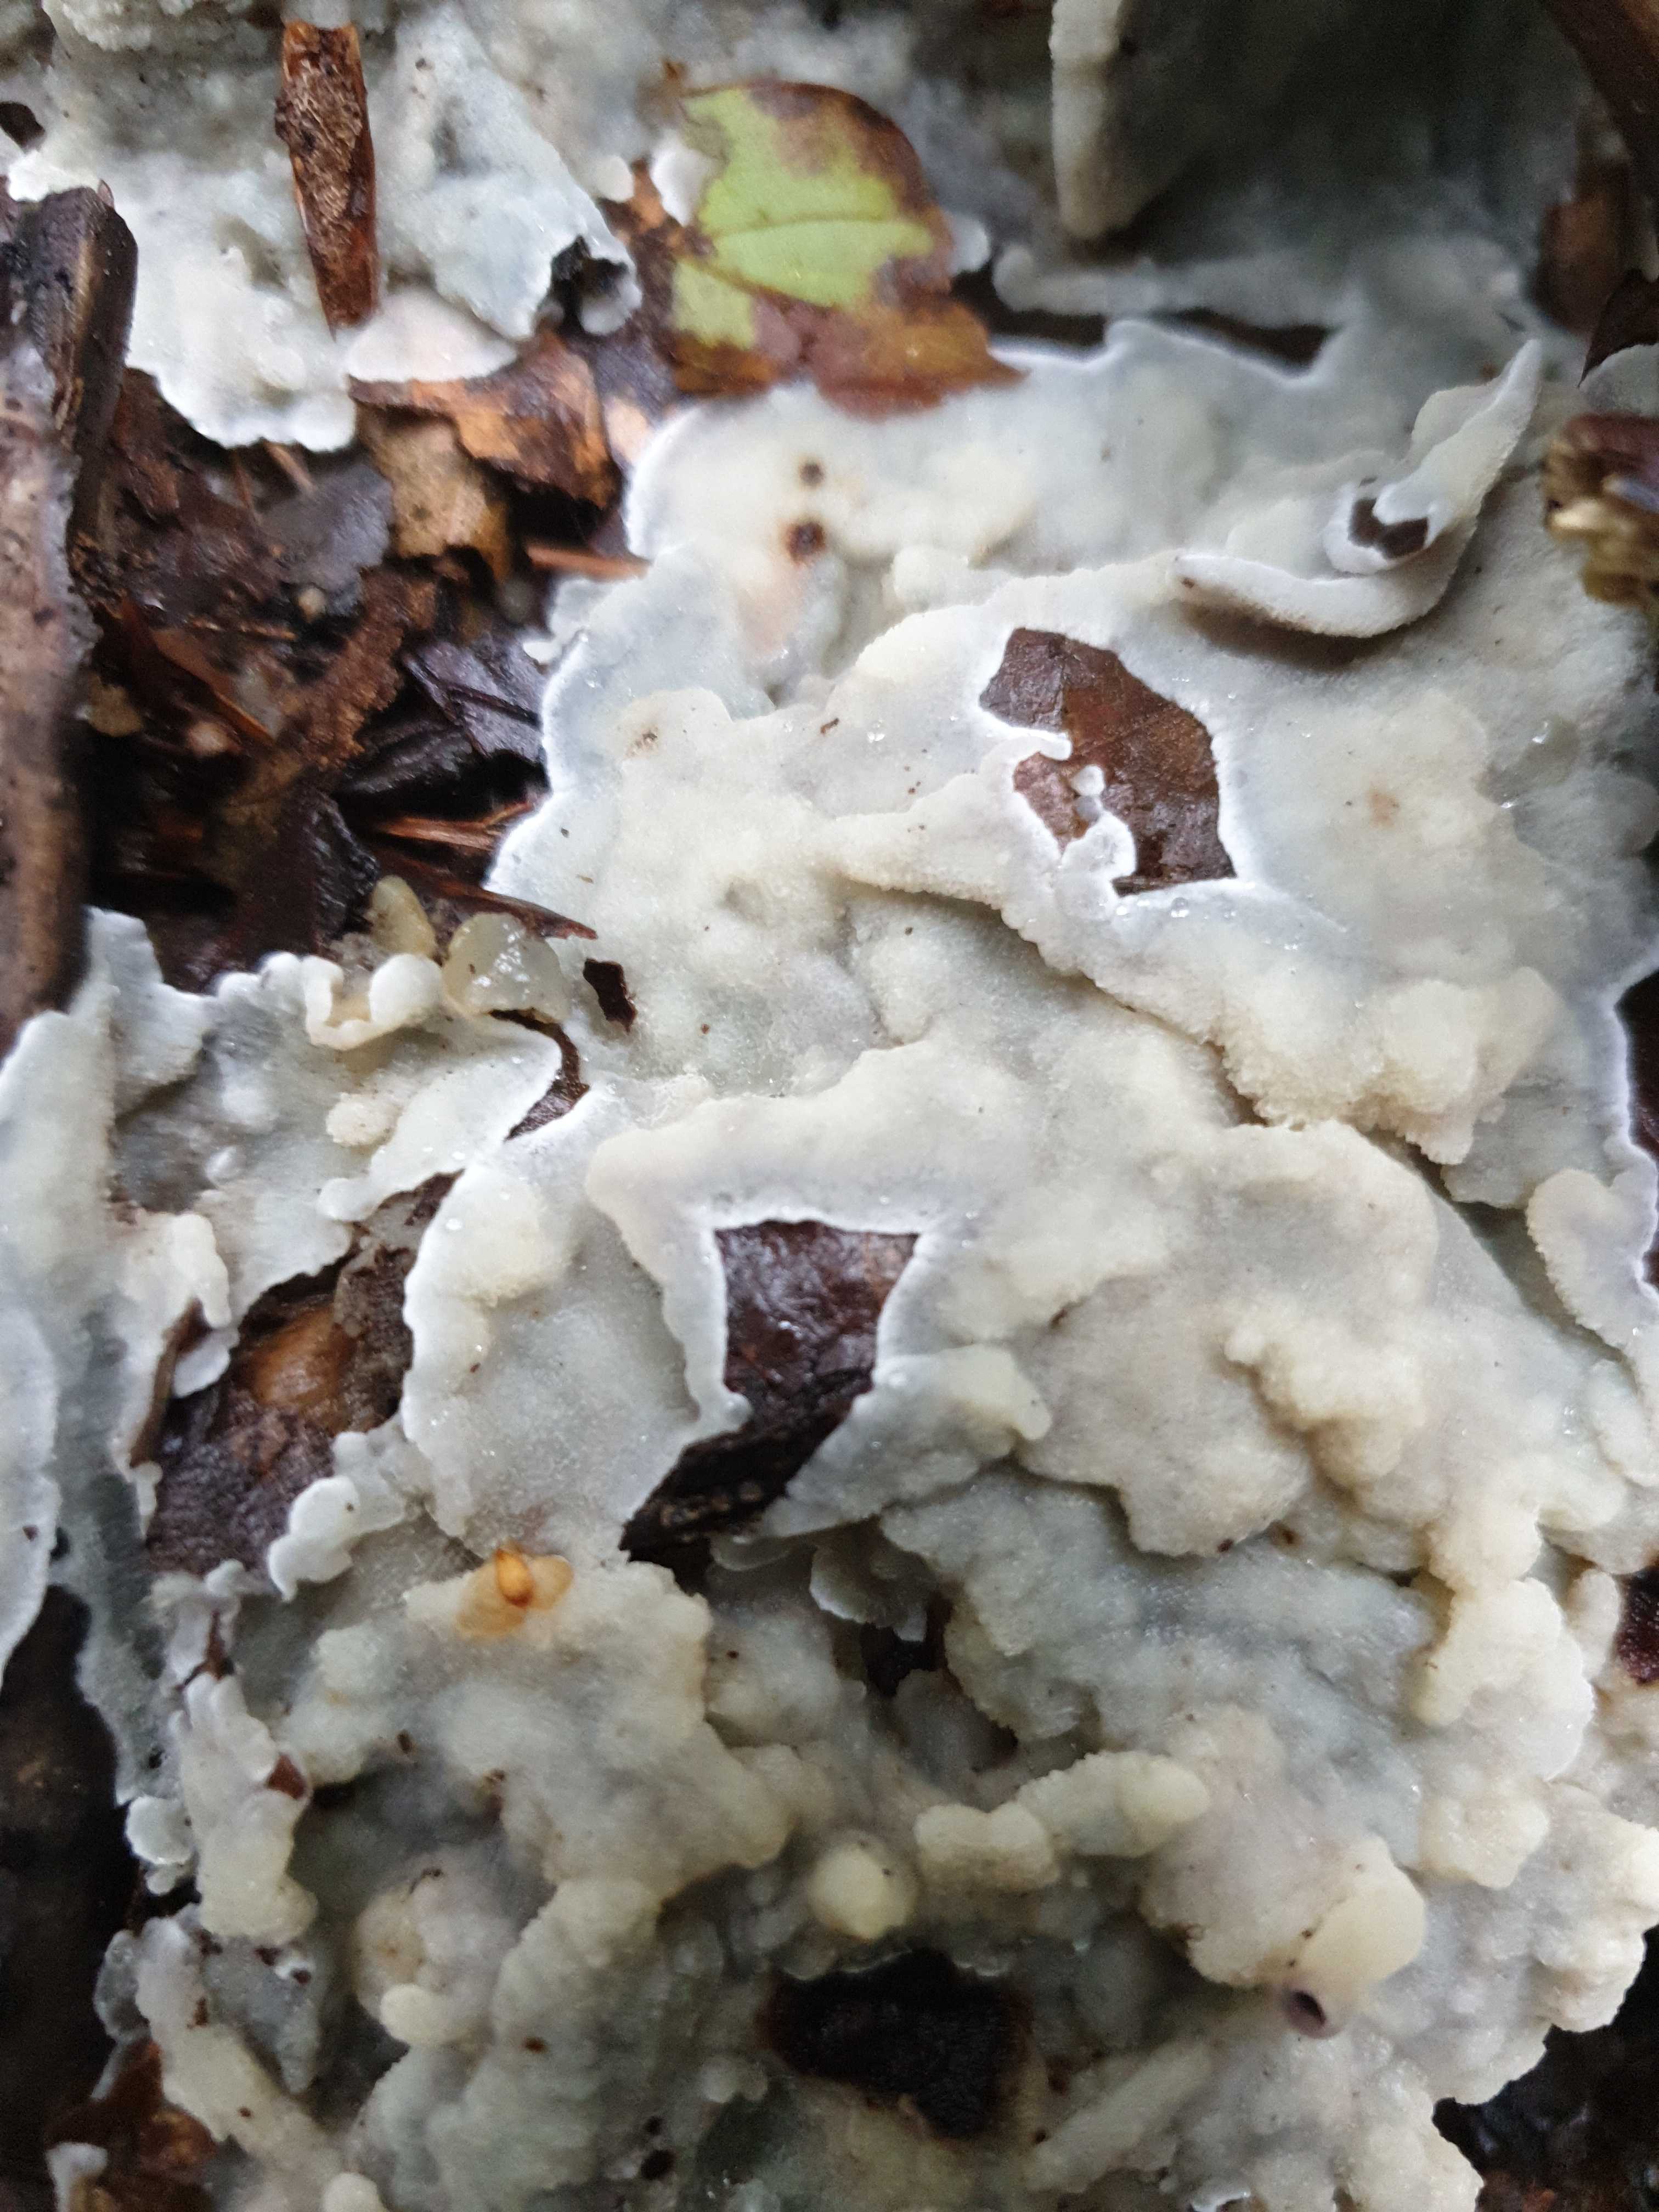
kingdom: Fungi
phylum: Basidiomycota
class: Agaricomycetes
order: Polyporales
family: Meruliaceae
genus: Physisporinus
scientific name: Physisporinus
